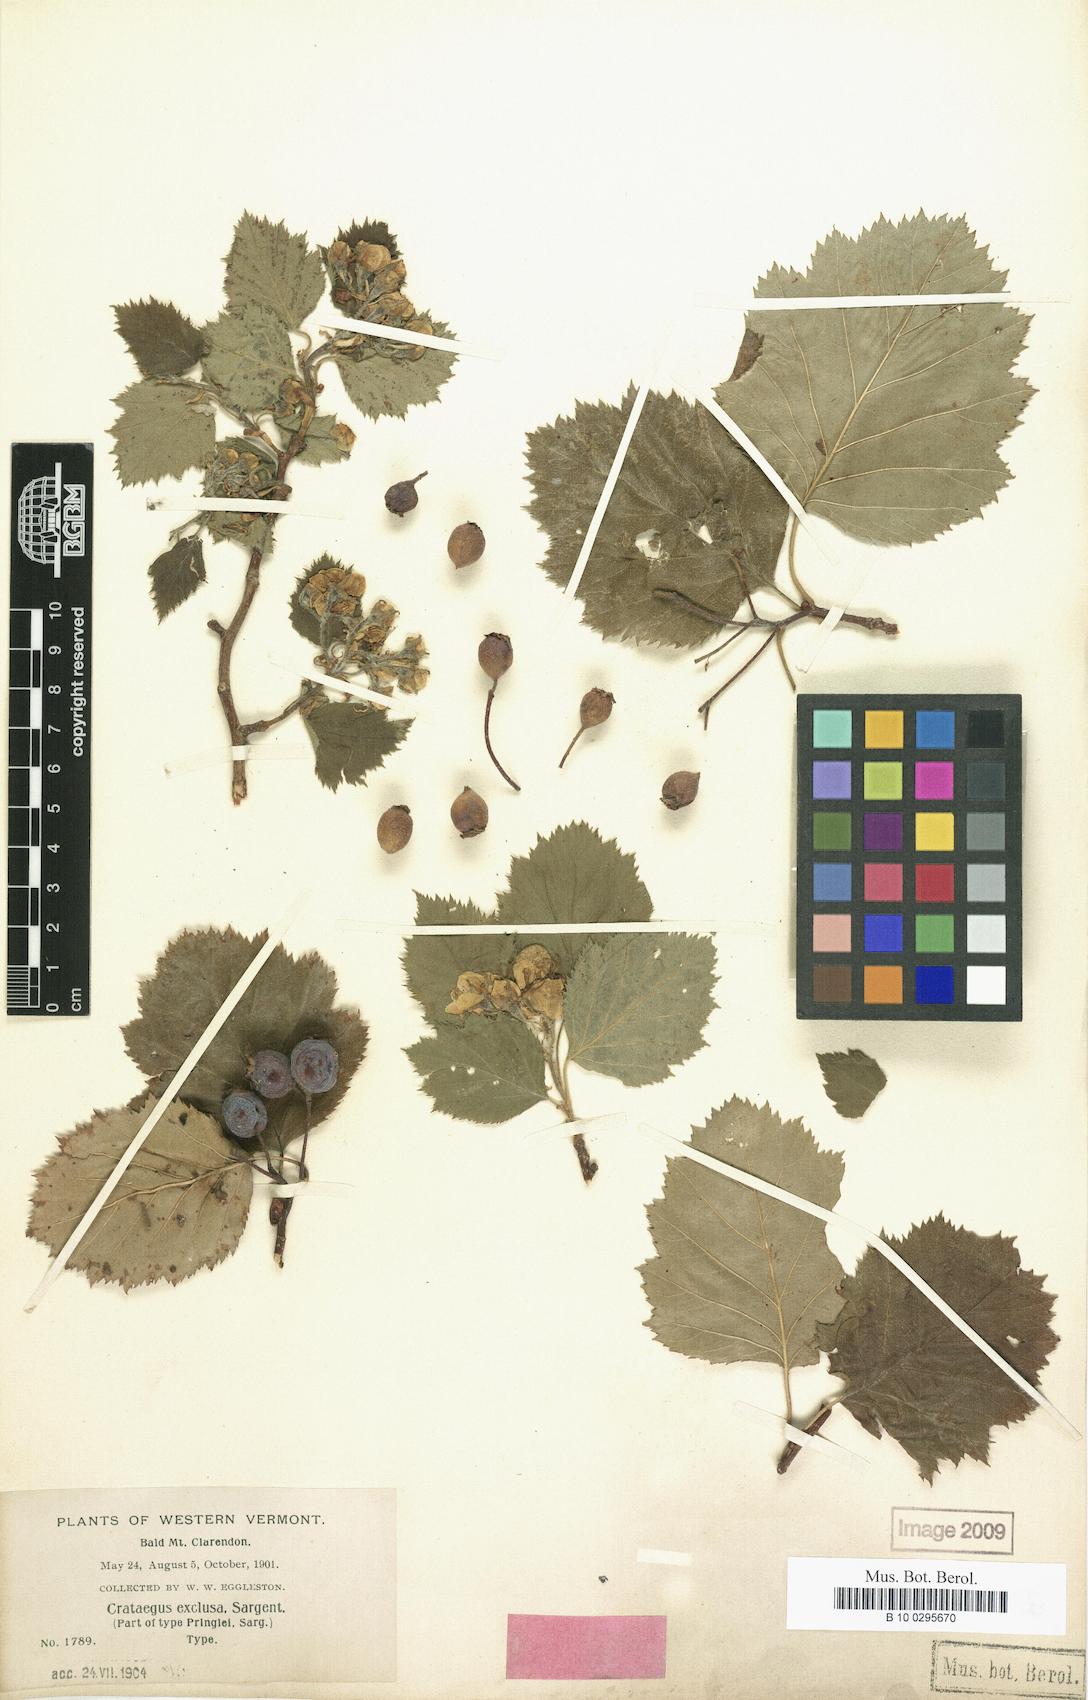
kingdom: Plantae
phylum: Tracheophyta
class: Magnoliopsida
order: Rosales
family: Rosaceae
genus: Crataegus
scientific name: Crataegus coccinea
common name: Scarlet hawthorn
